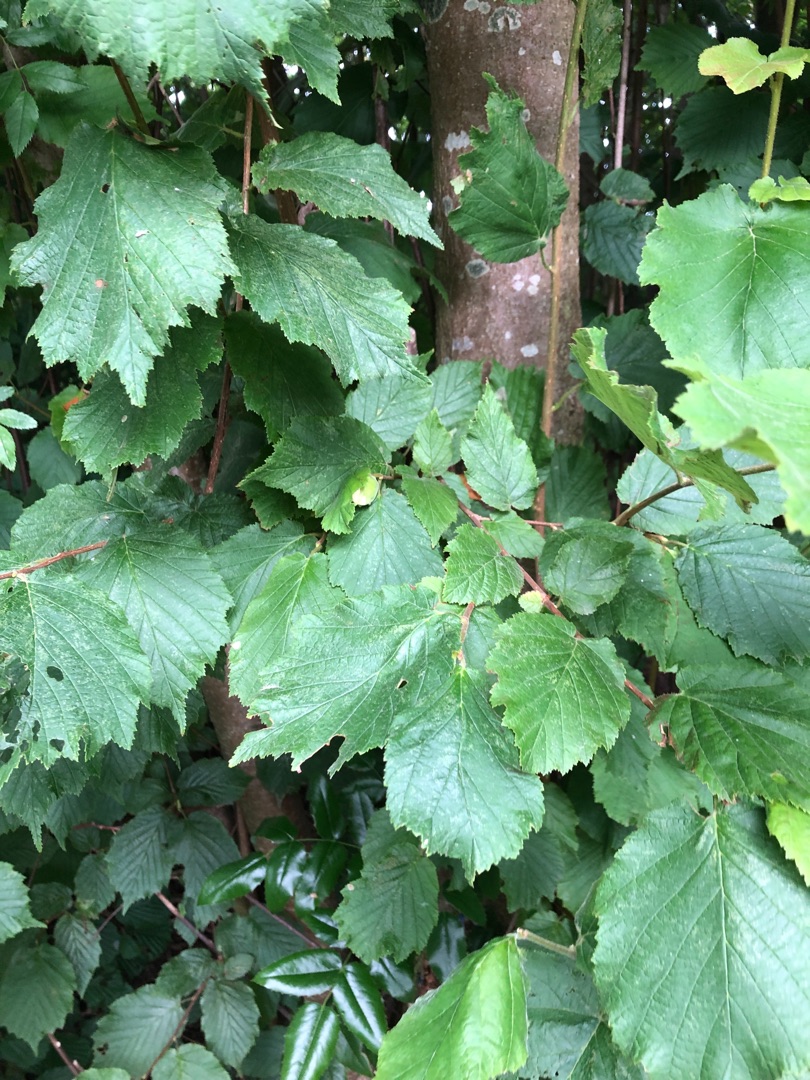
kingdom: Plantae
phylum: Tracheophyta
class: Magnoliopsida
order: Fagales
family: Betulaceae
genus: Corylus
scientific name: Corylus avellana
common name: Hassel
